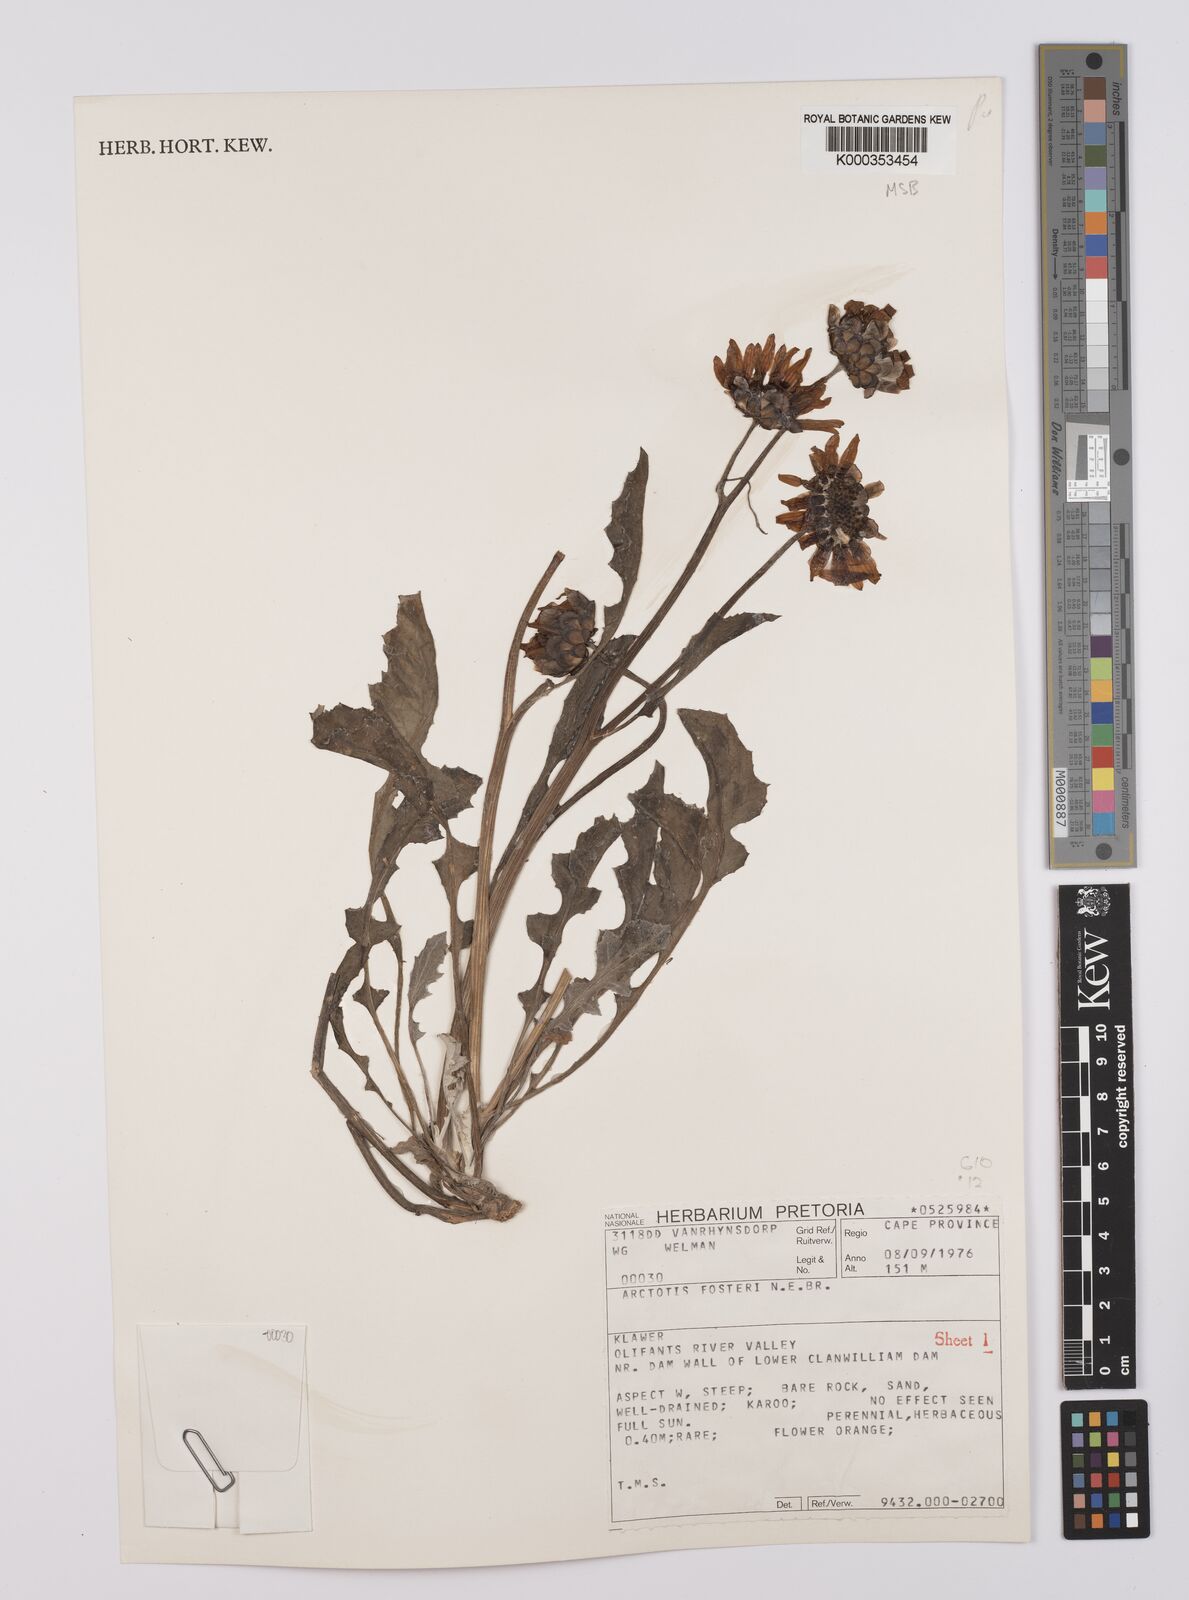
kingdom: Plantae
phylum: Tracheophyta
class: Magnoliopsida
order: Asterales
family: Asteraceae
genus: Arctotis
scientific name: Arctotis fosteri
